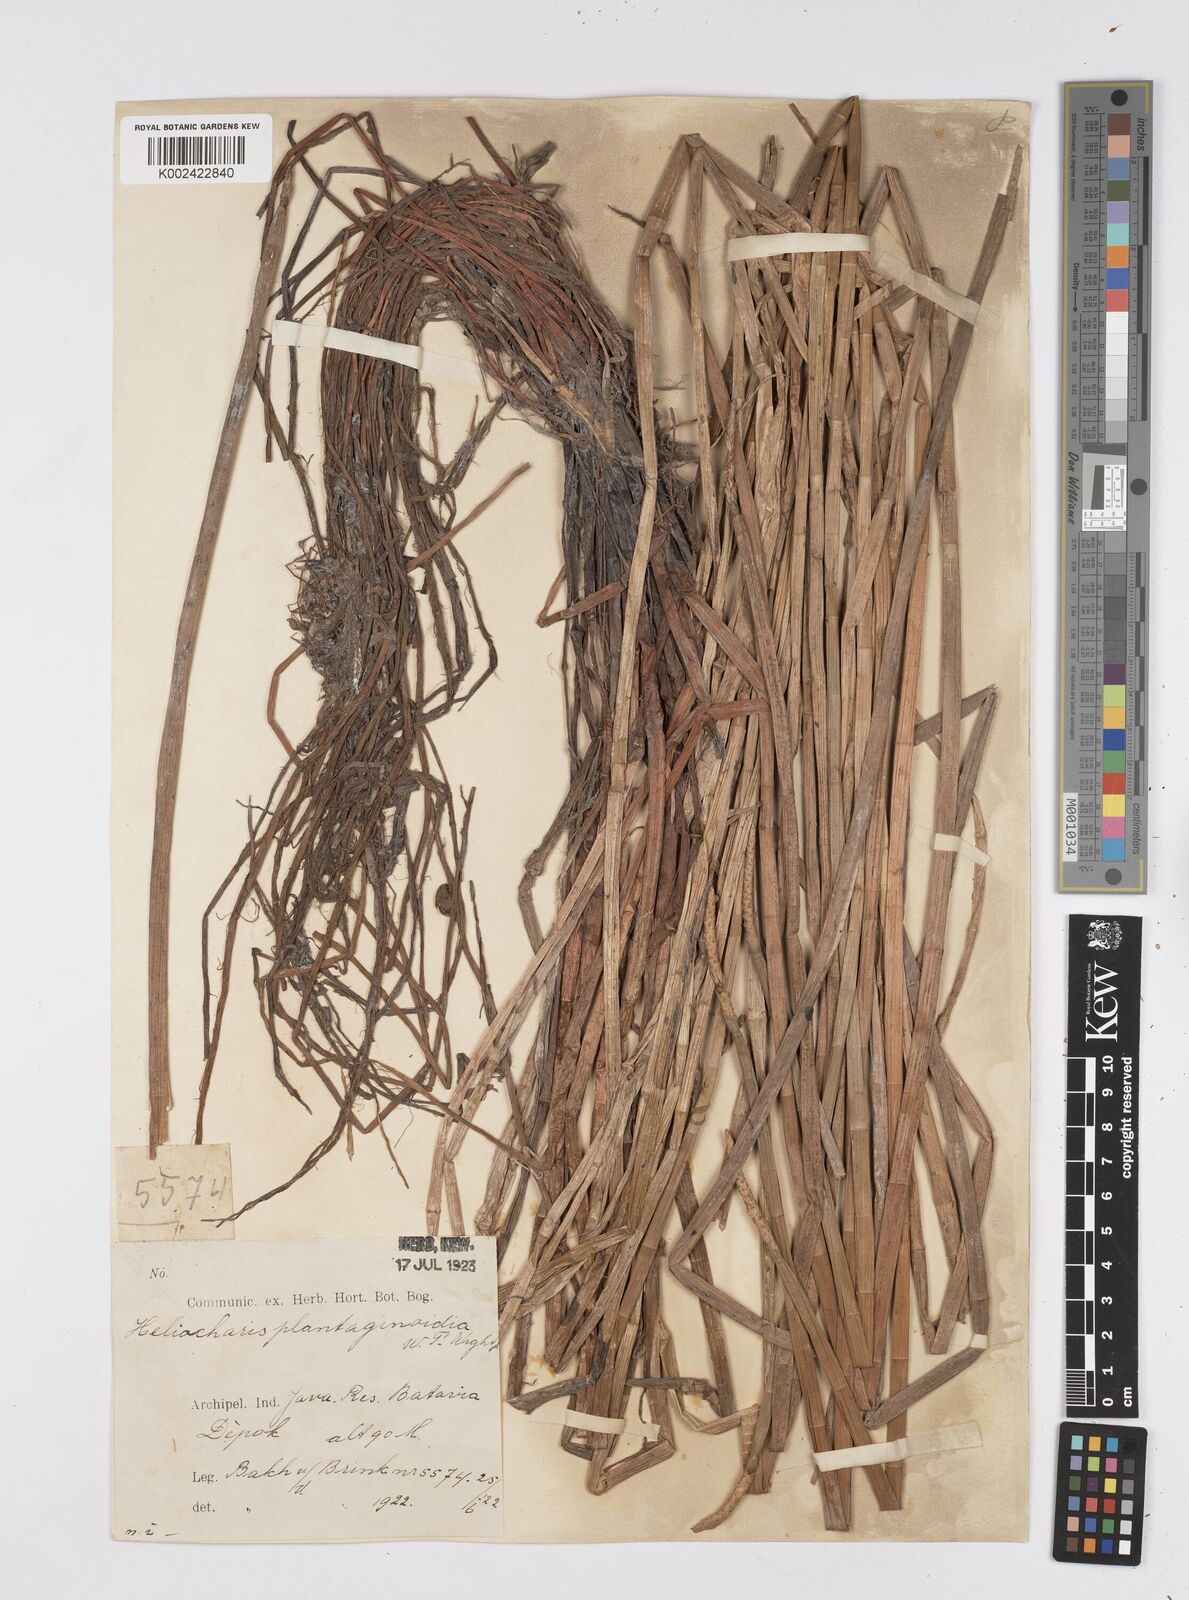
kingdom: Plantae
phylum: Tracheophyta
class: Liliopsida
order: Poales
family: Cyperaceae
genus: Eleocharis
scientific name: Eleocharis dulcis
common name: Chinese water chestnut
